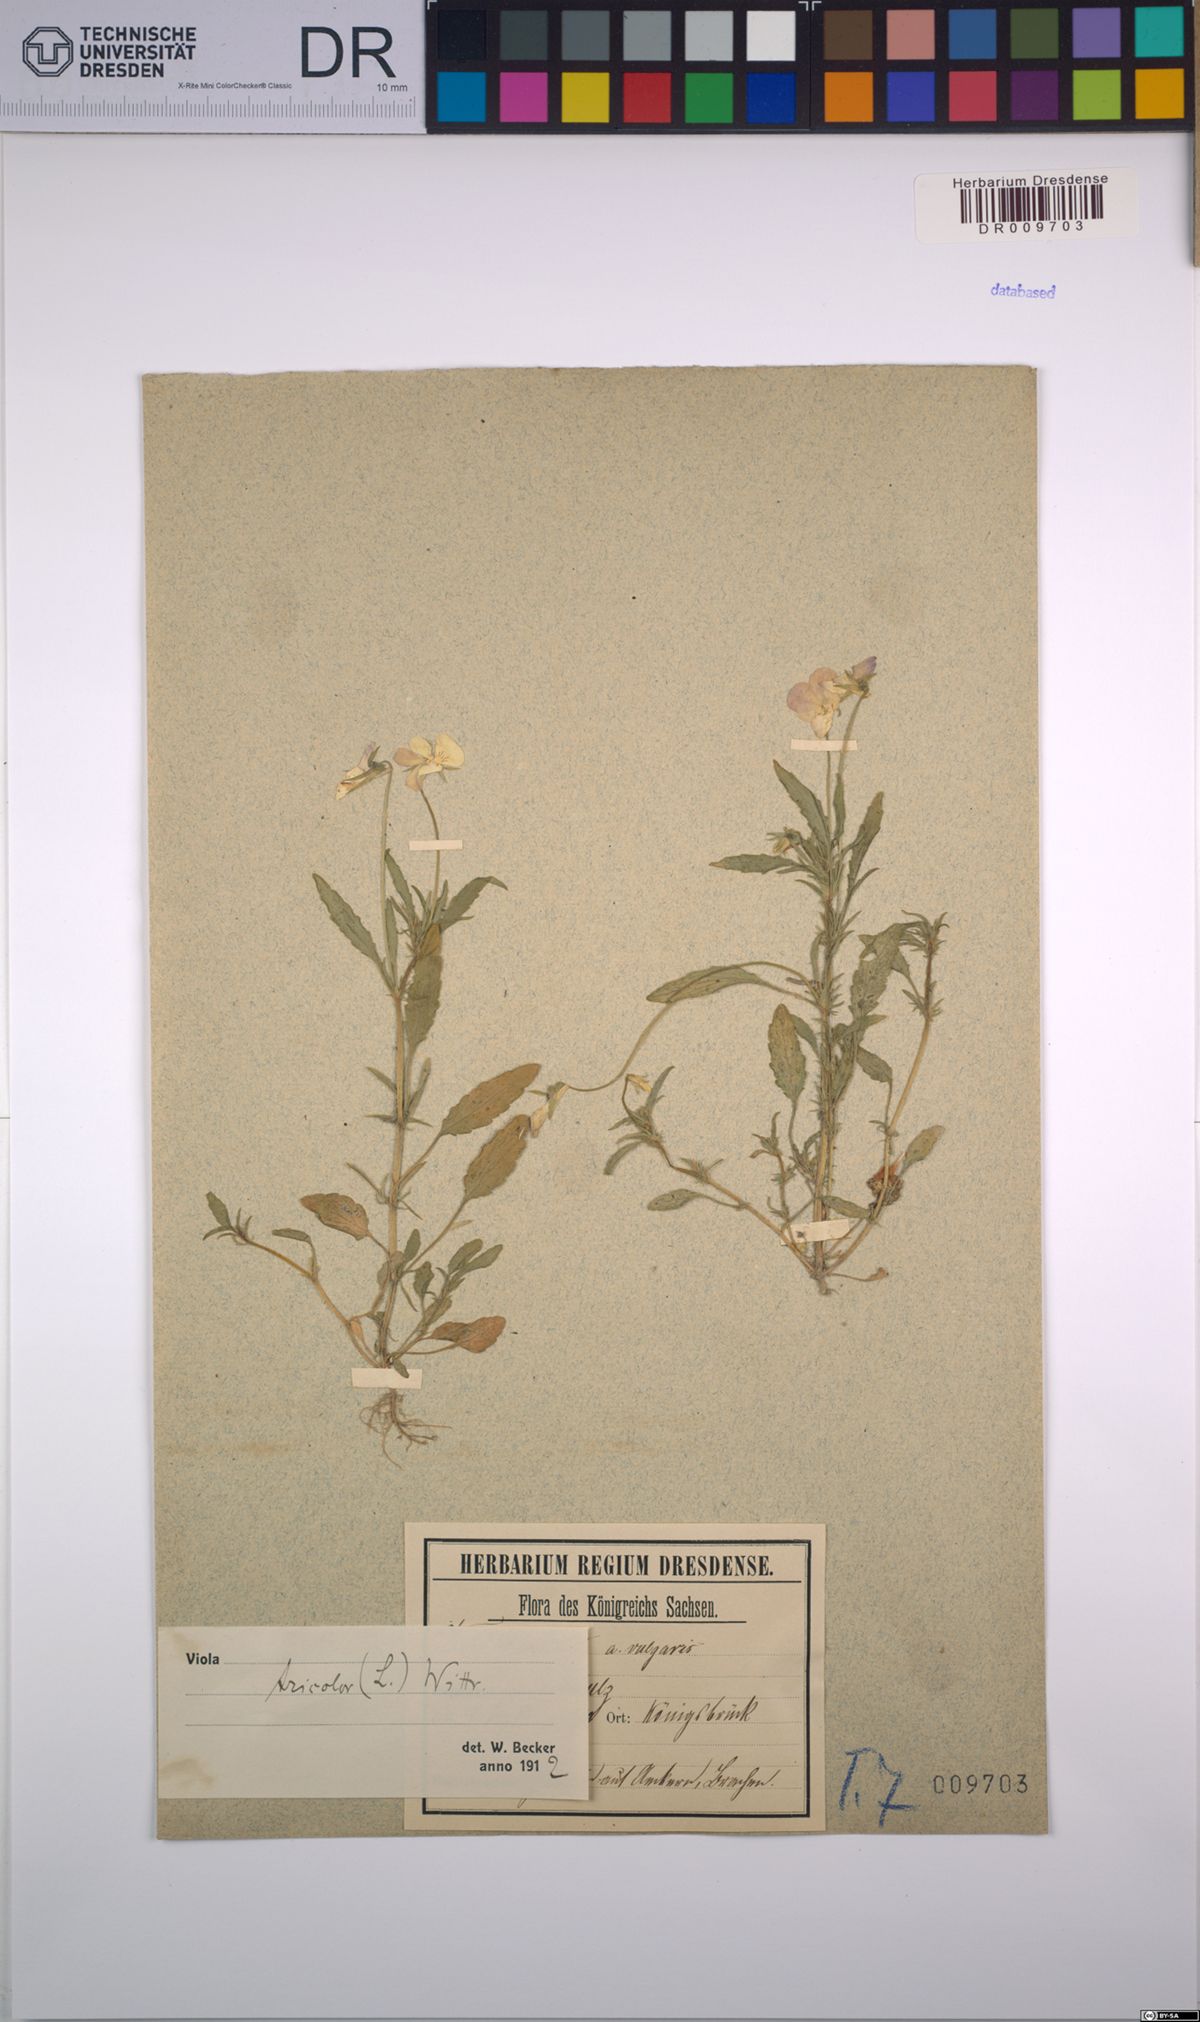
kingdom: Plantae
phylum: Tracheophyta
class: Magnoliopsida
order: Malpighiales
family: Violaceae
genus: Viola
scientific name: Viola tricolor
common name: Pansy
